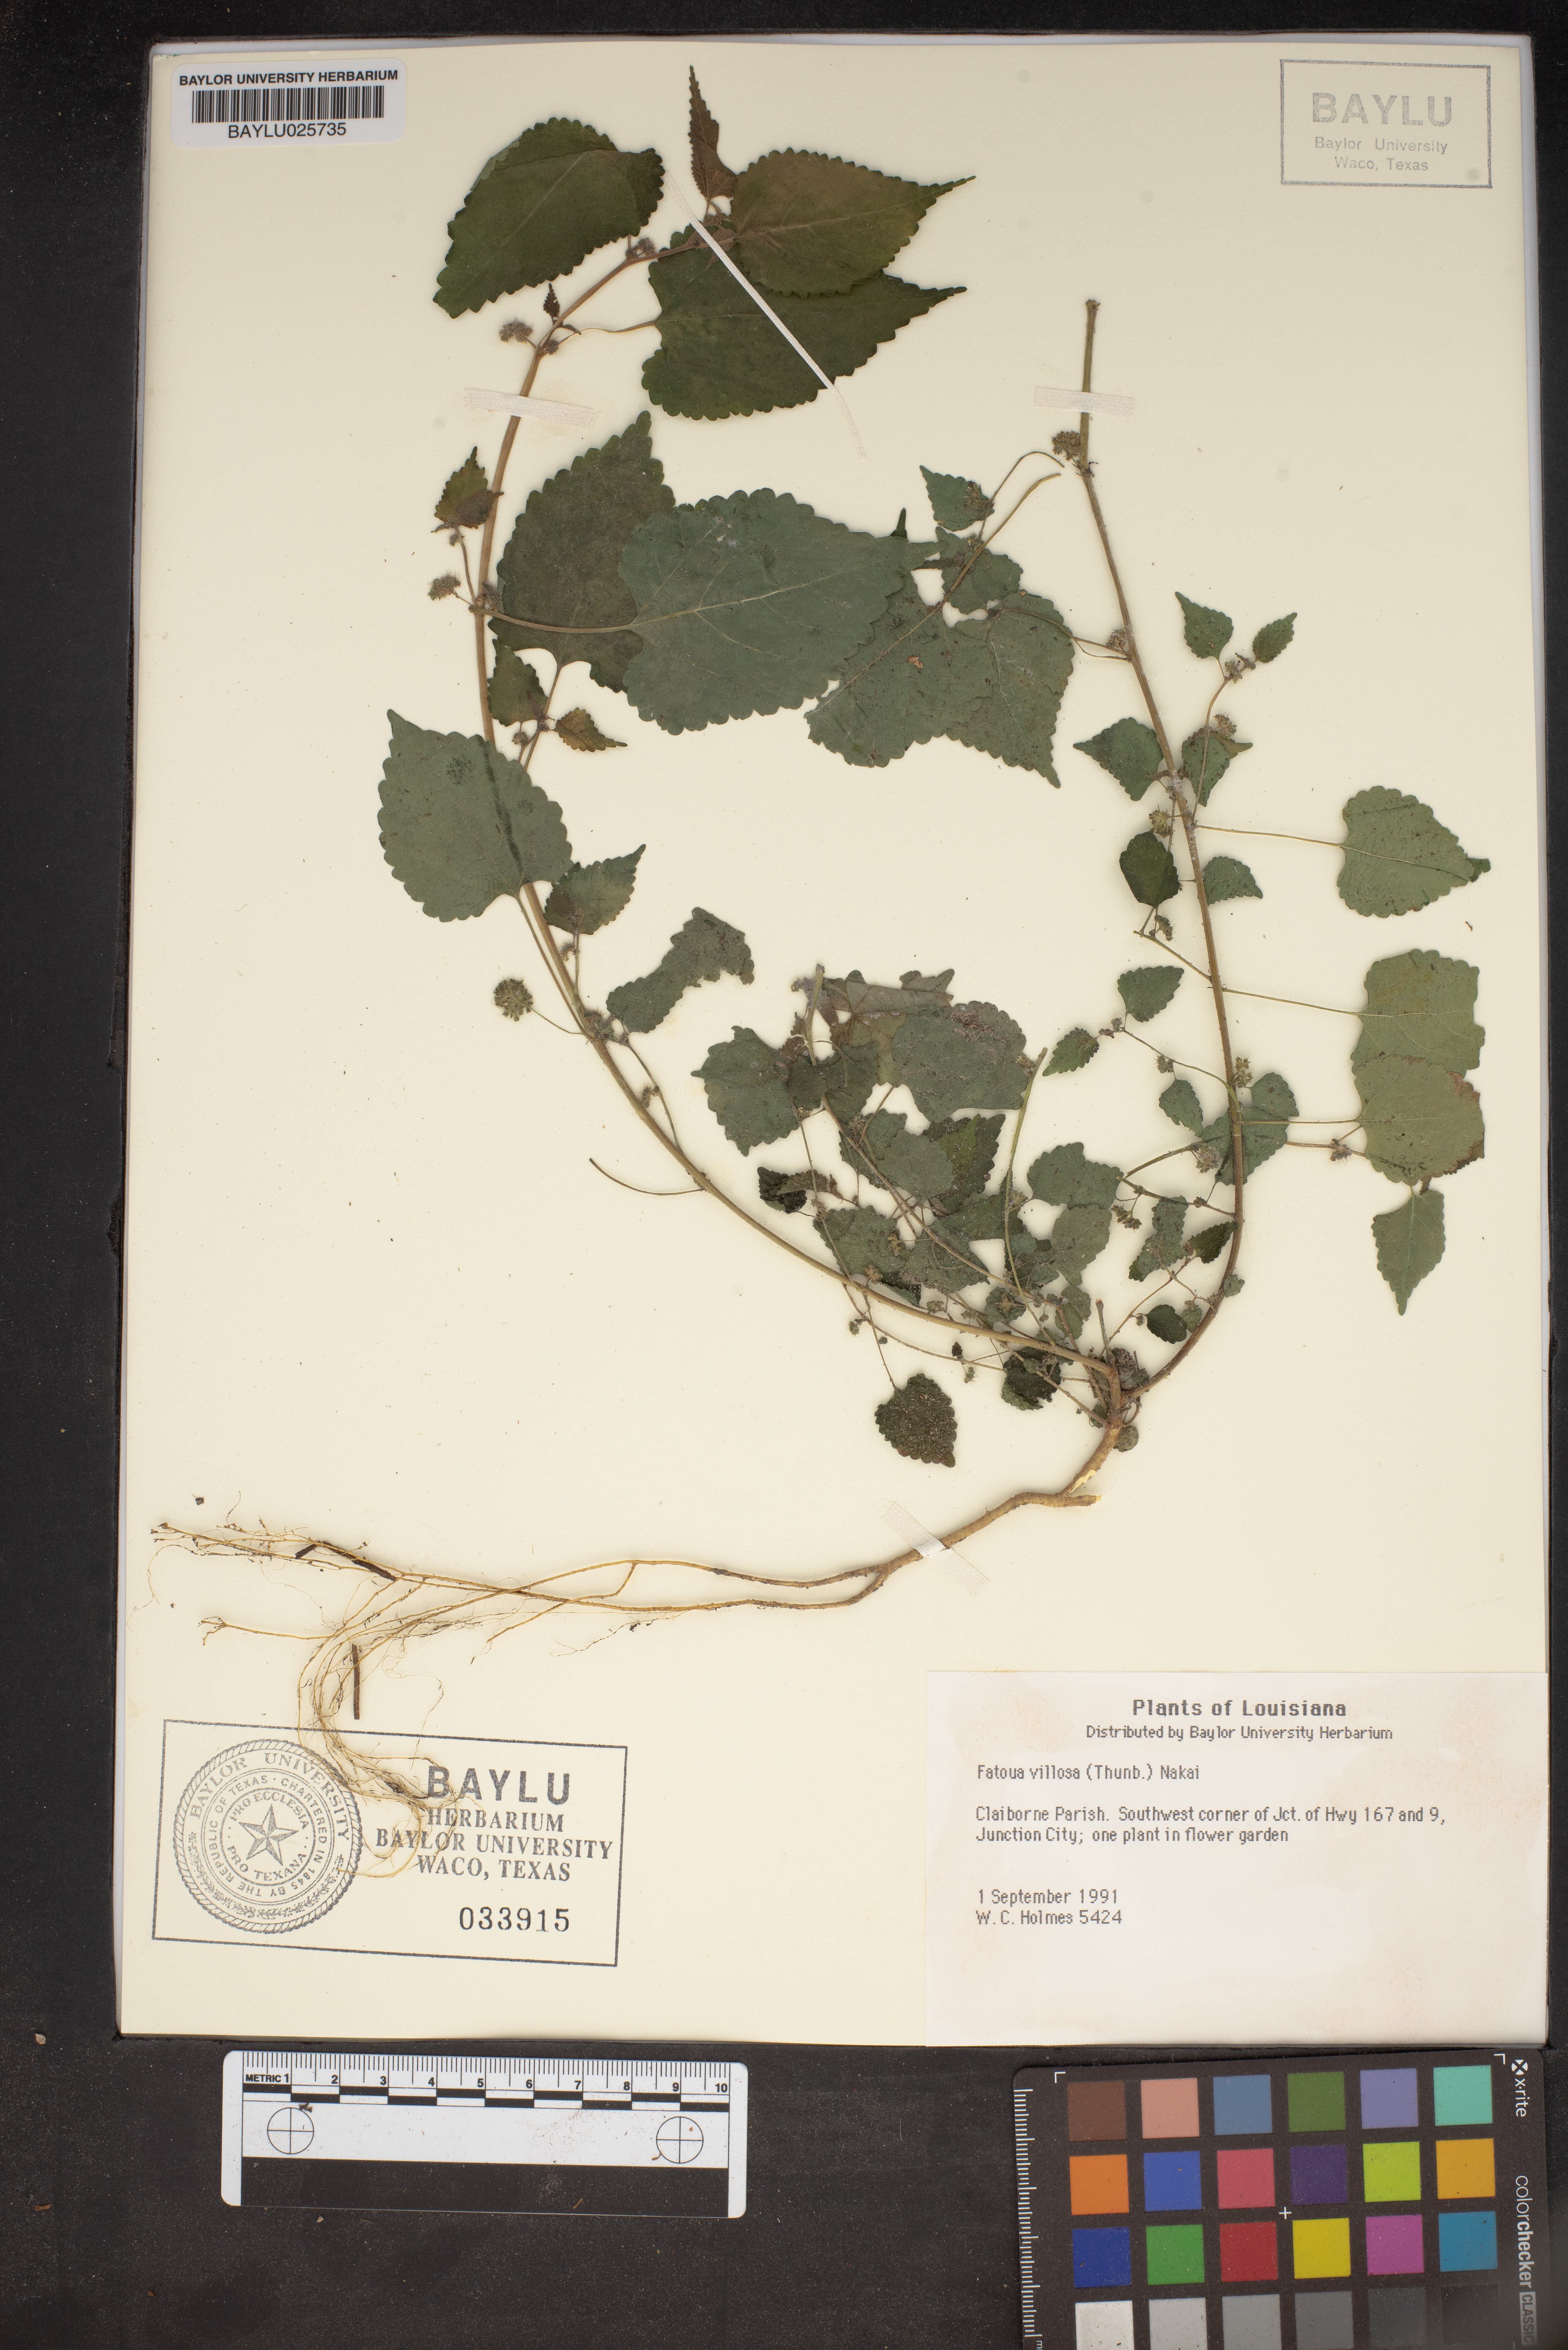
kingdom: Plantae
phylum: Tracheophyta
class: Magnoliopsida
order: Rosales
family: Moraceae
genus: Fatoua
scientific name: Fatoua villosa
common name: Hairy crabweed
